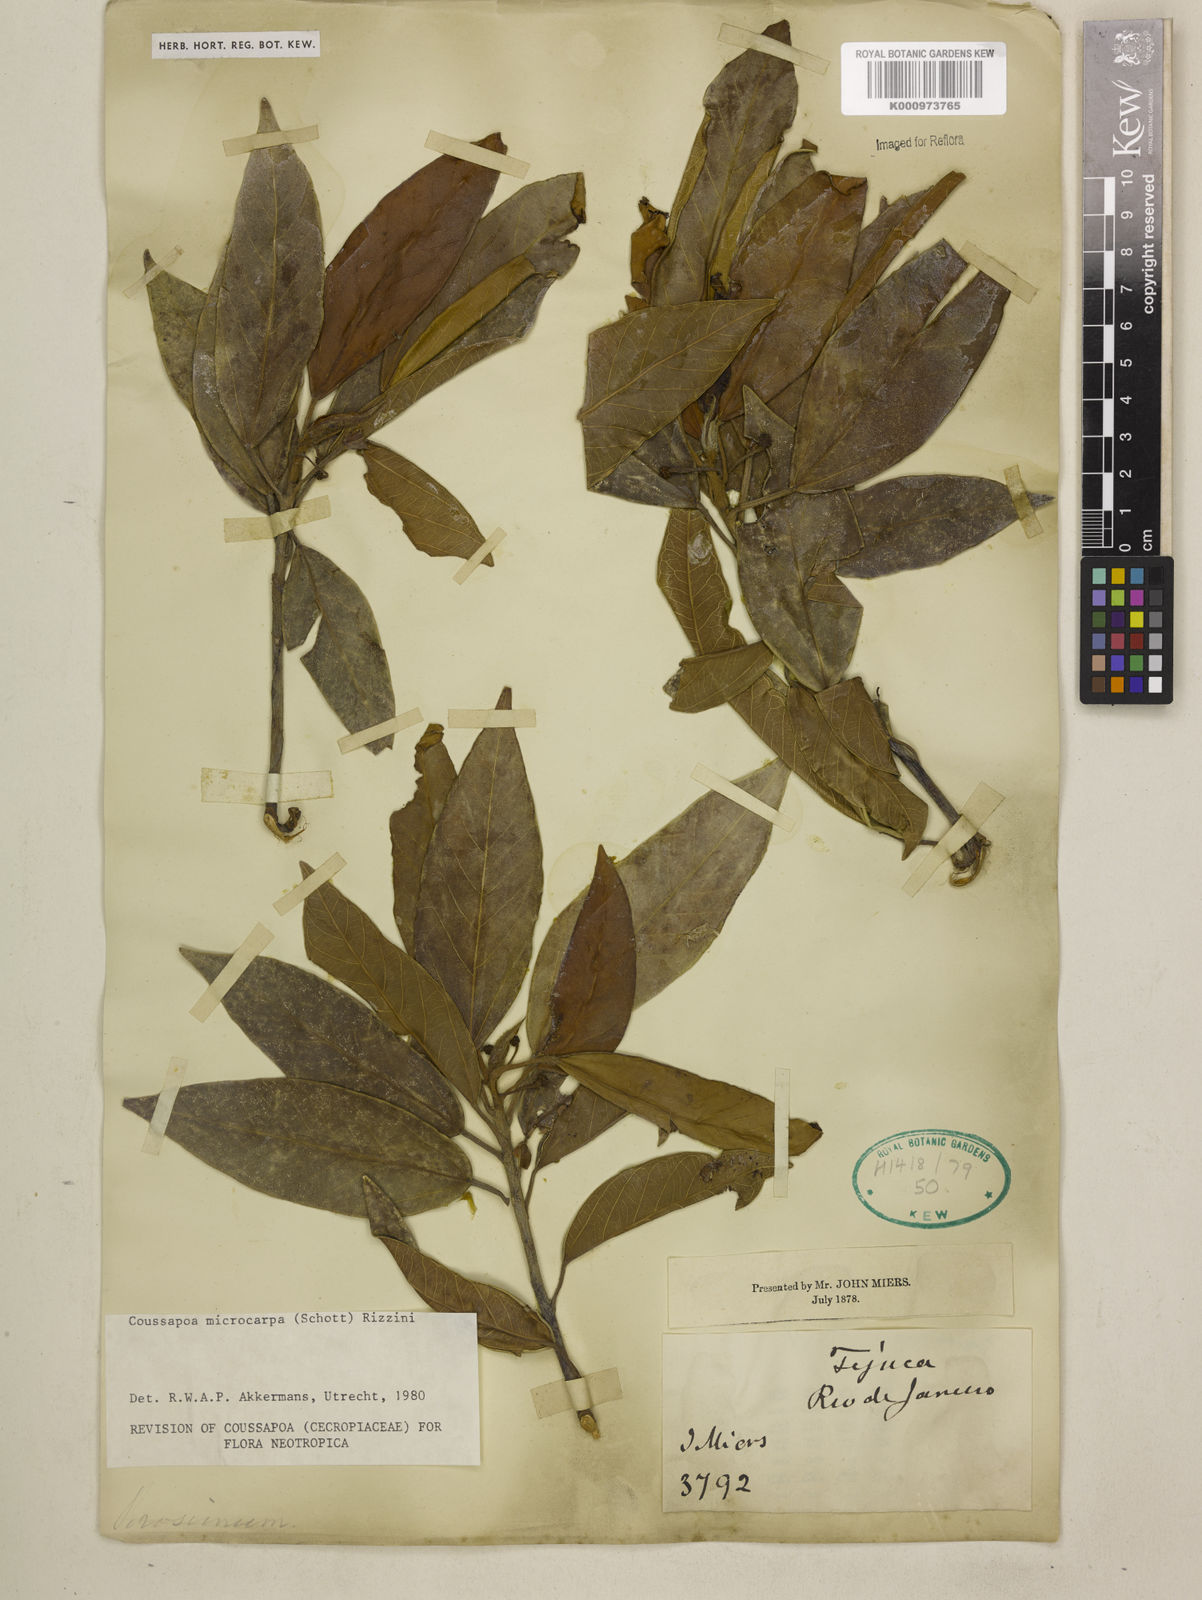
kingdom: Plantae
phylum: Tracheophyta
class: Magnoliopsida
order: Rosales
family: Urticaceae
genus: Coussapoa
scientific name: Coussapoa microcarpa
